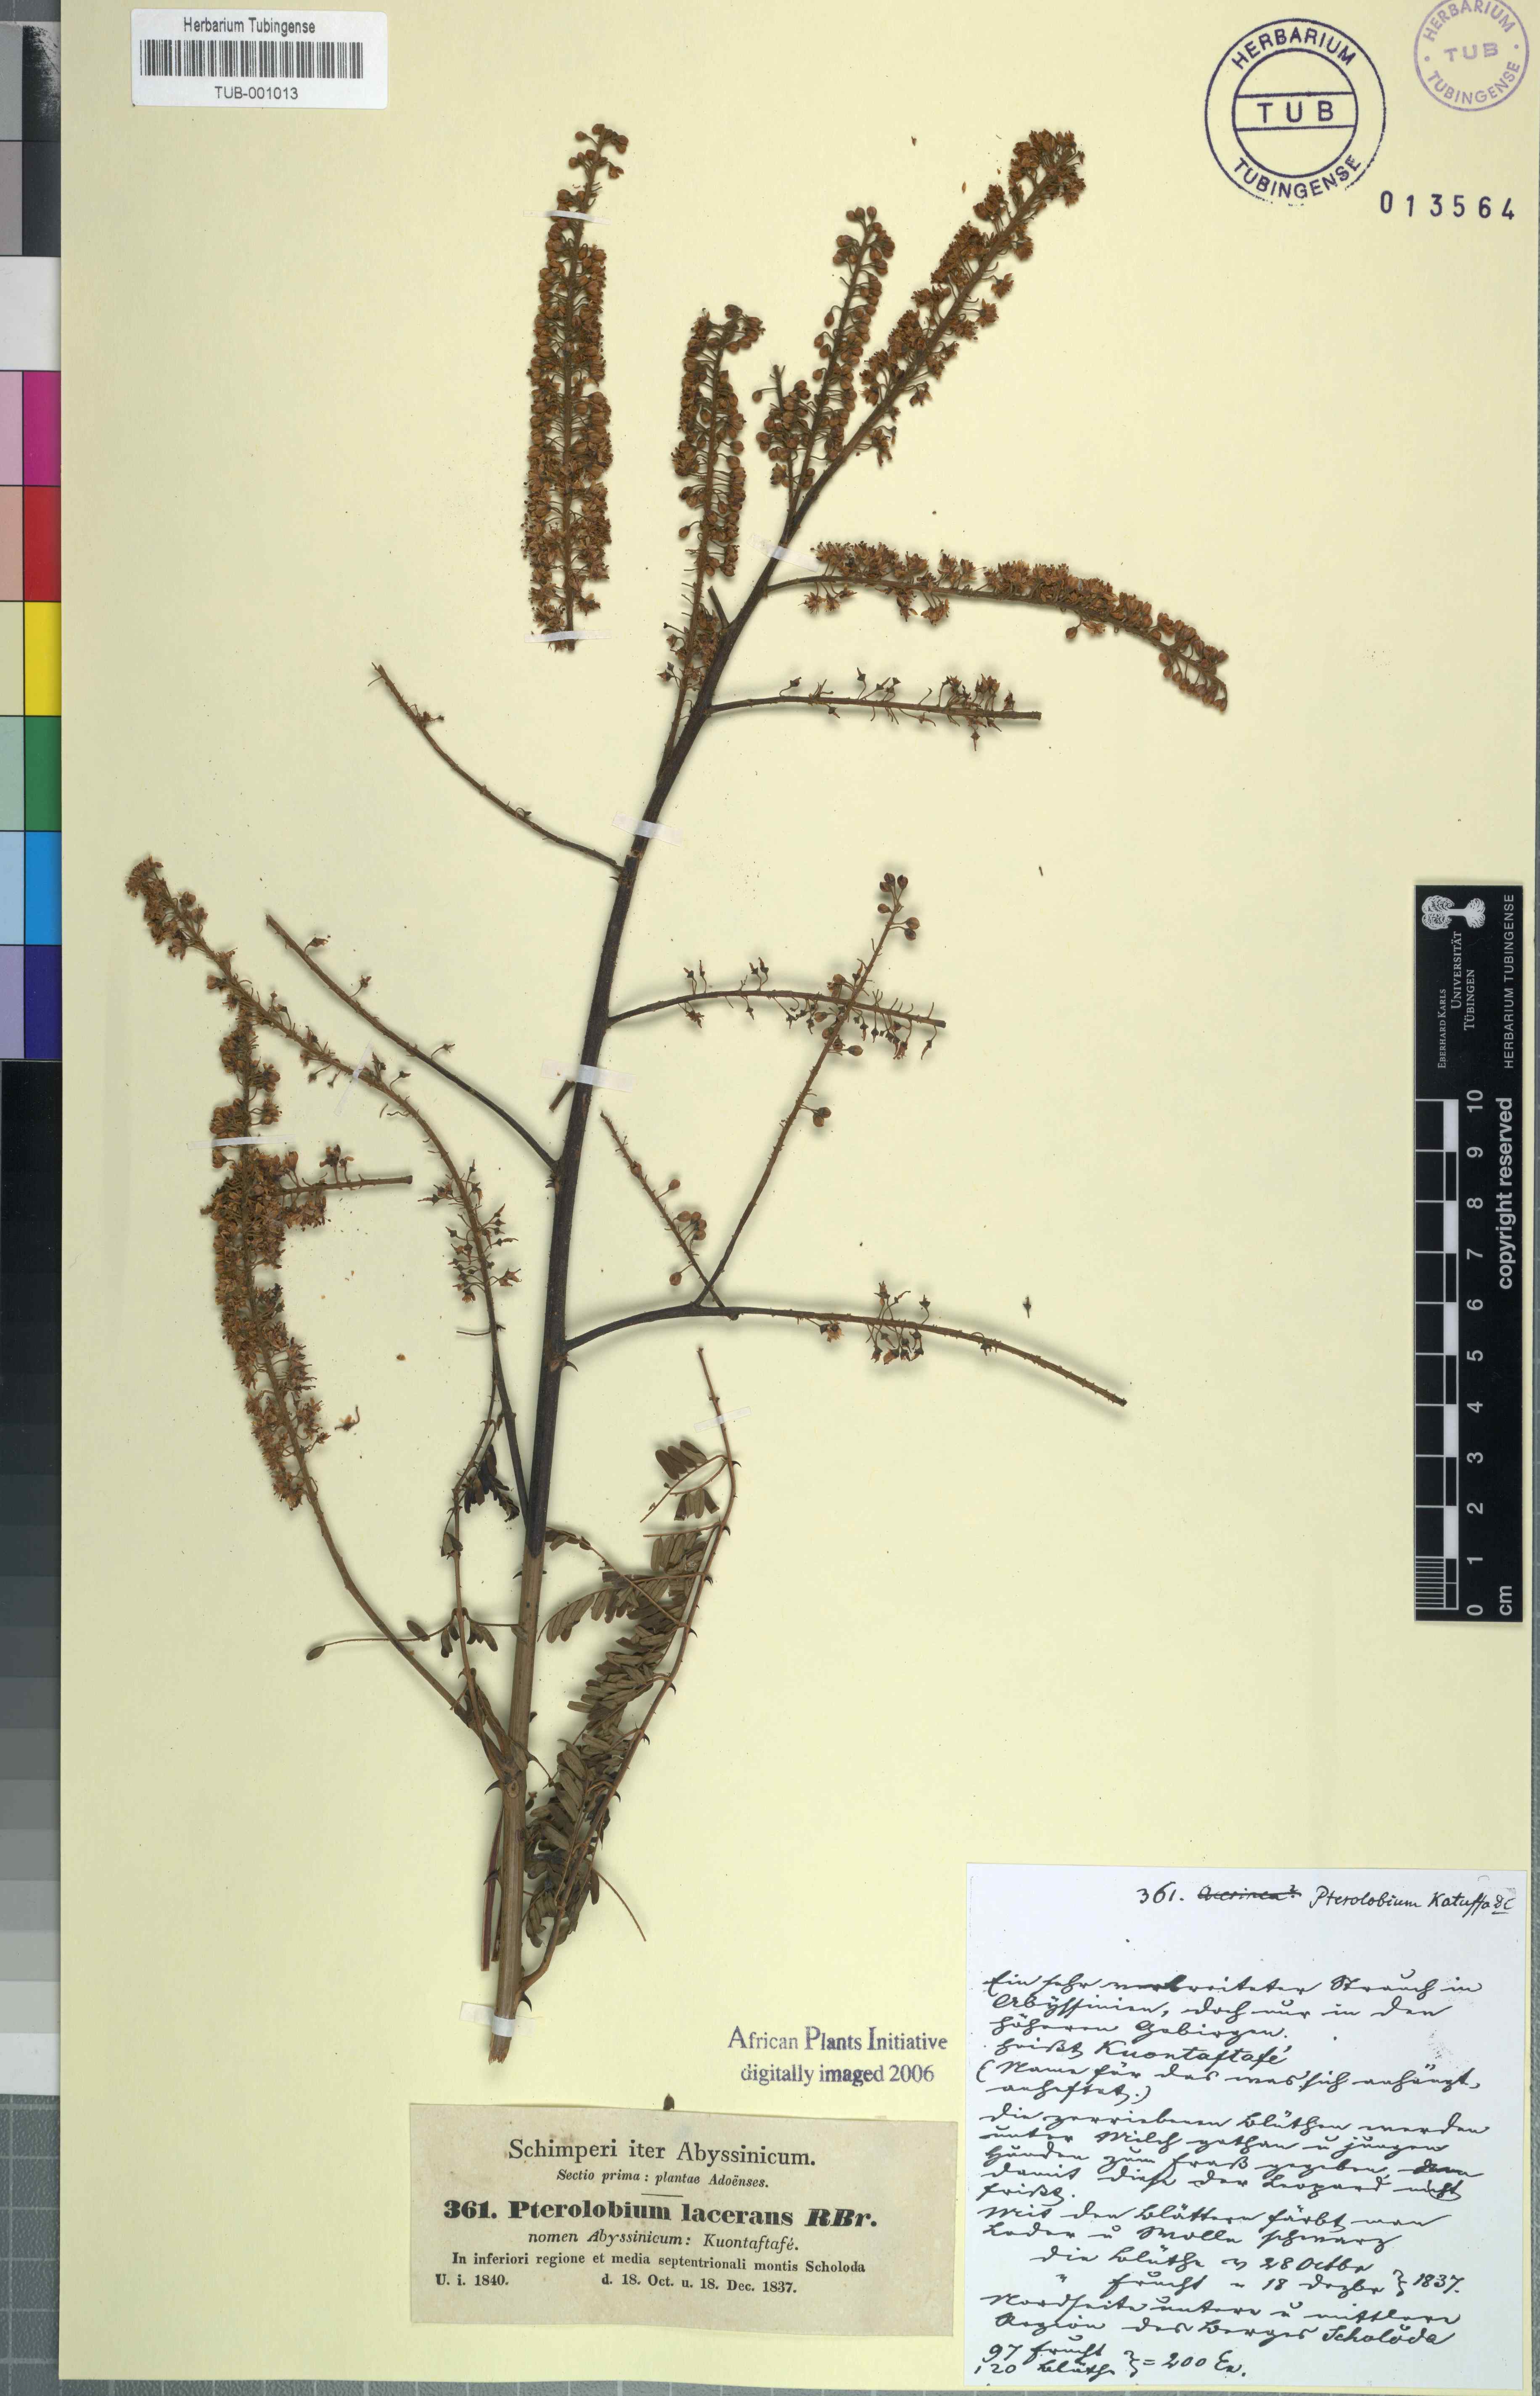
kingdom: Plantae
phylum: Tracheophyta
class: Magnoliopsida
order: Fabales
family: Fabaceae
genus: Pterolobium
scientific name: Pterolobium stellatum
